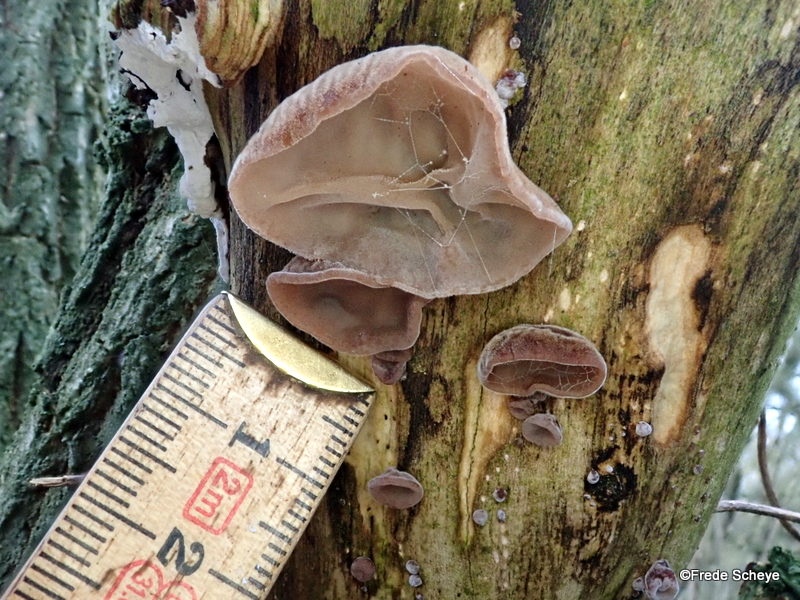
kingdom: Fungi
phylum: Basidiomycota
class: Agaricomycetes
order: Auriculariales
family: Auriculariaceae
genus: Auricularia
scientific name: Auricularia auricula-judae
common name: almindelig judasøre
